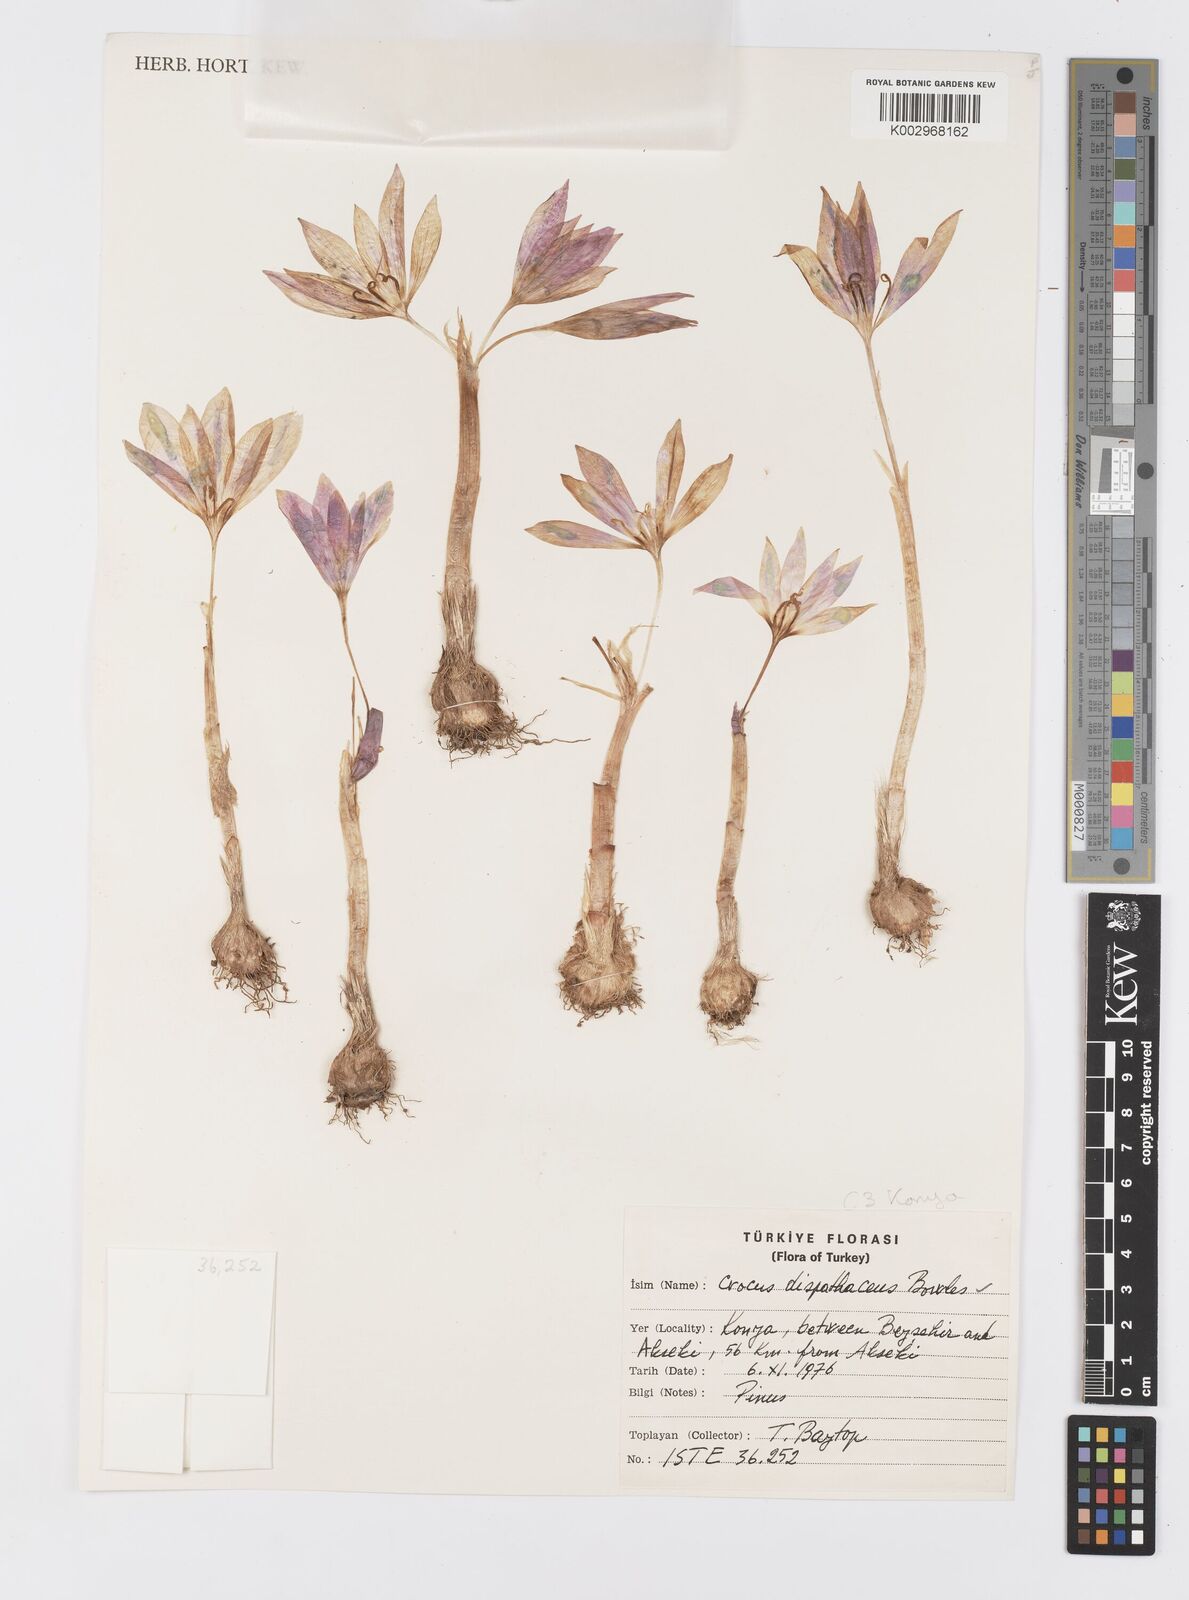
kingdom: Plantae
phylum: Tracheophyta
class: Liliopsida
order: Asparagales
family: Iridaceae
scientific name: Iridaceae
